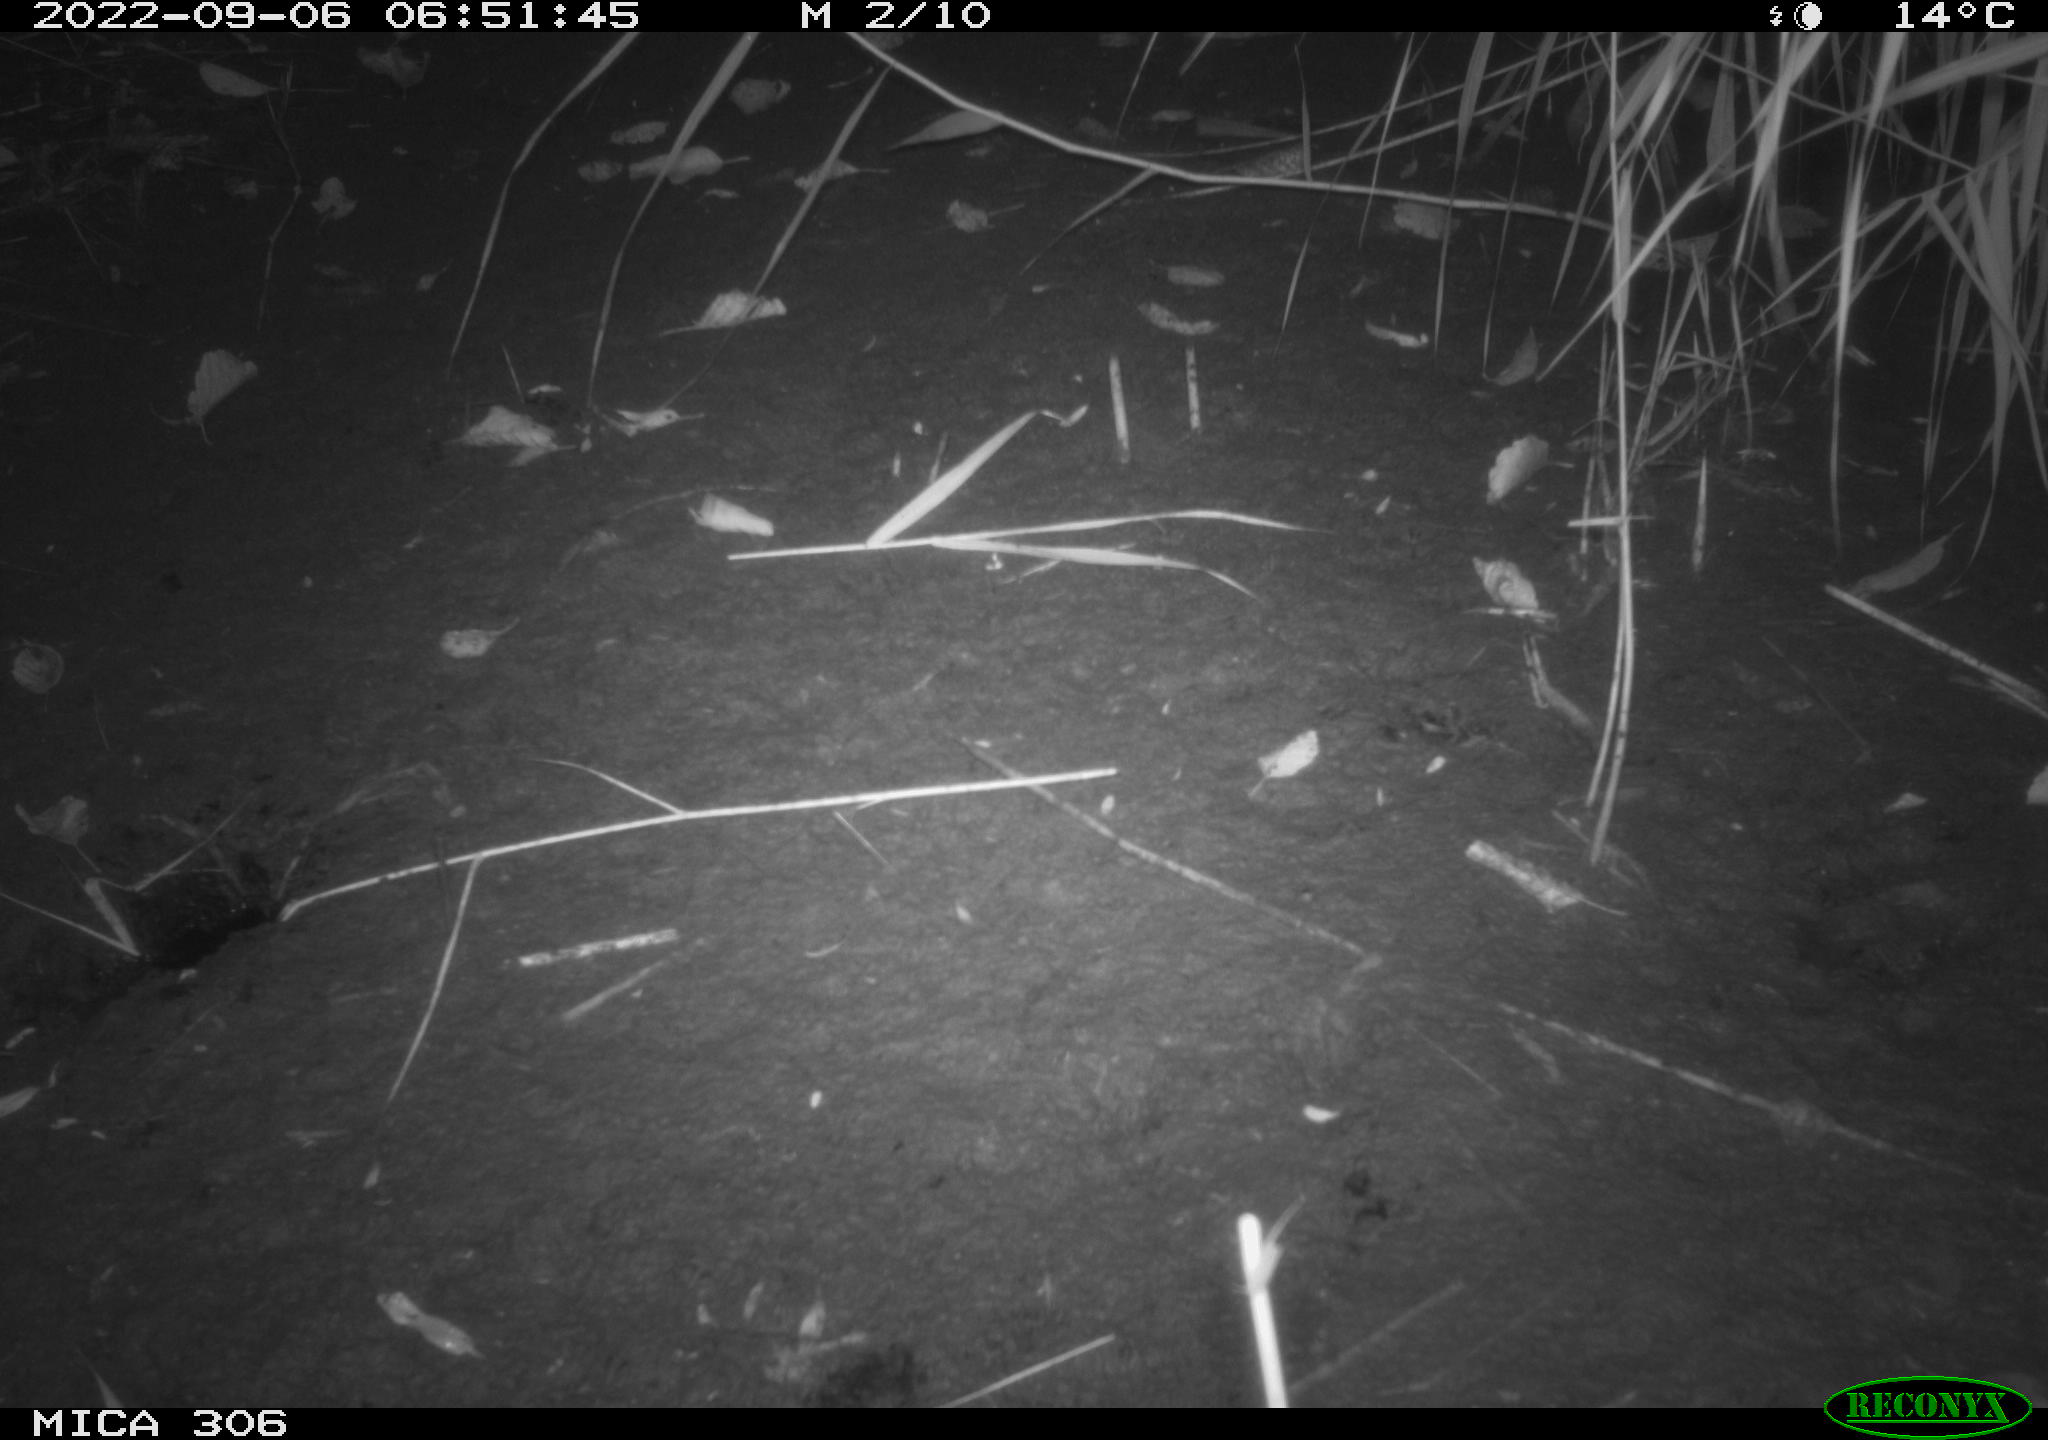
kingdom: Animalia
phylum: Chordata
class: Mammalia
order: Rodentia
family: Muridae
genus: Rattus
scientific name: Rattus norvegicus
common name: Brown rat
